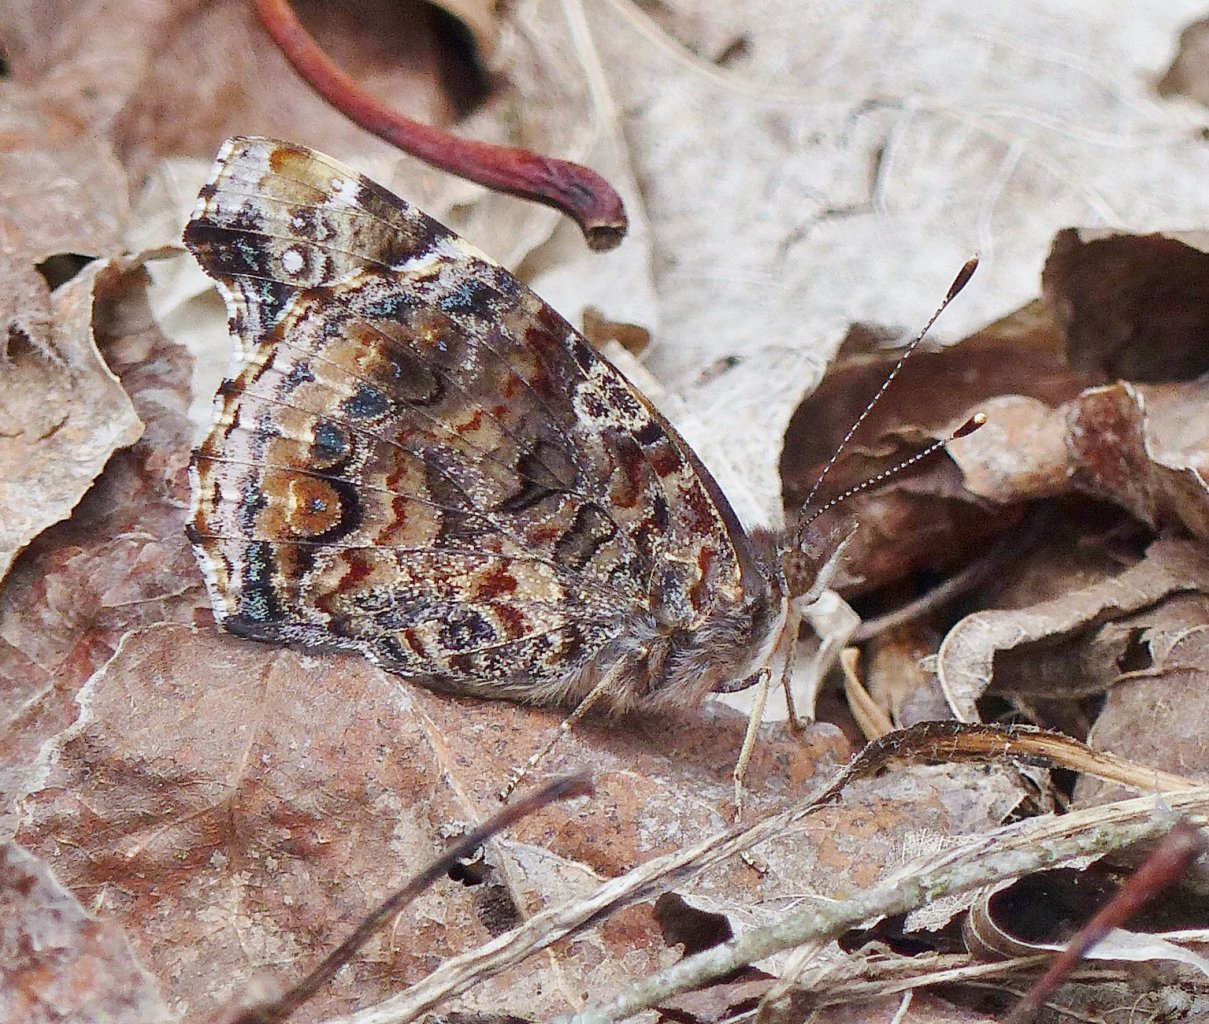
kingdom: Animalia
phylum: Arthropoda
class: Insecta
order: Lepidoptera
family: Nymphalidae
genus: Vanessa
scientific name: Vanessa atalanta
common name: Red Admiral
